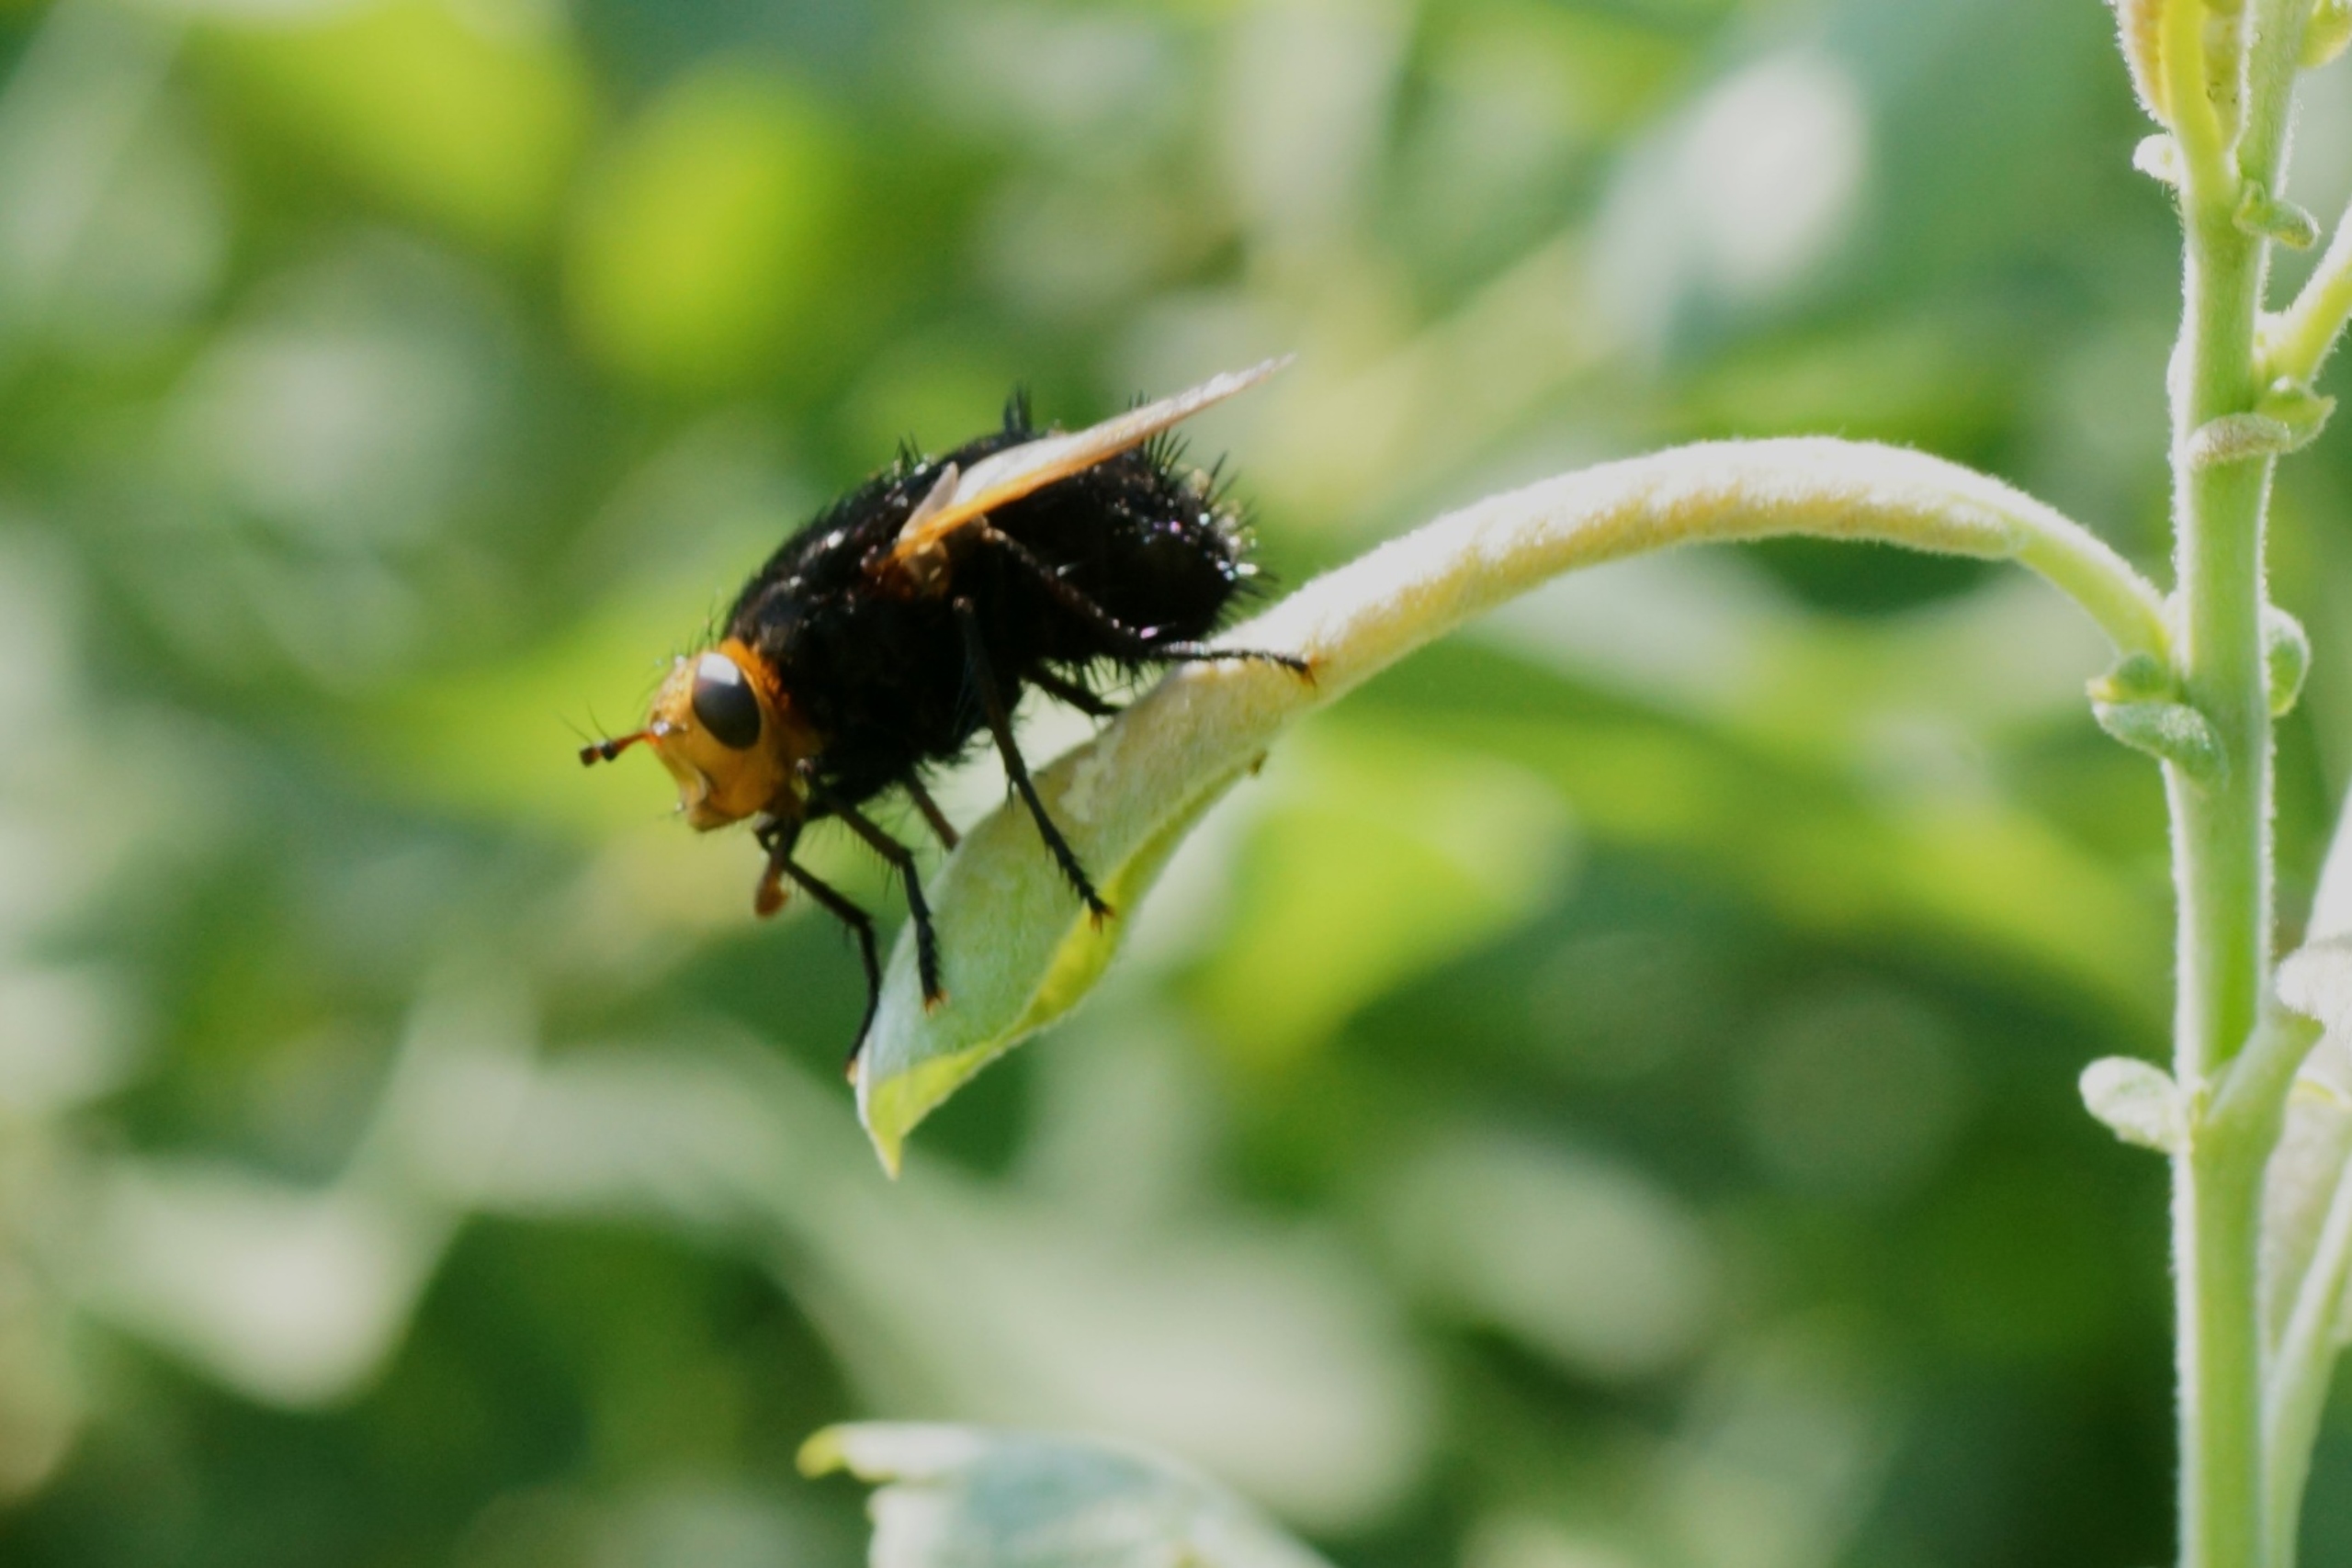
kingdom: Animalia
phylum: Arthropoda
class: Insecta
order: Diptera
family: Tachinidae
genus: Tachina
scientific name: Tachina grossa
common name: Kæmpefluen Harald
